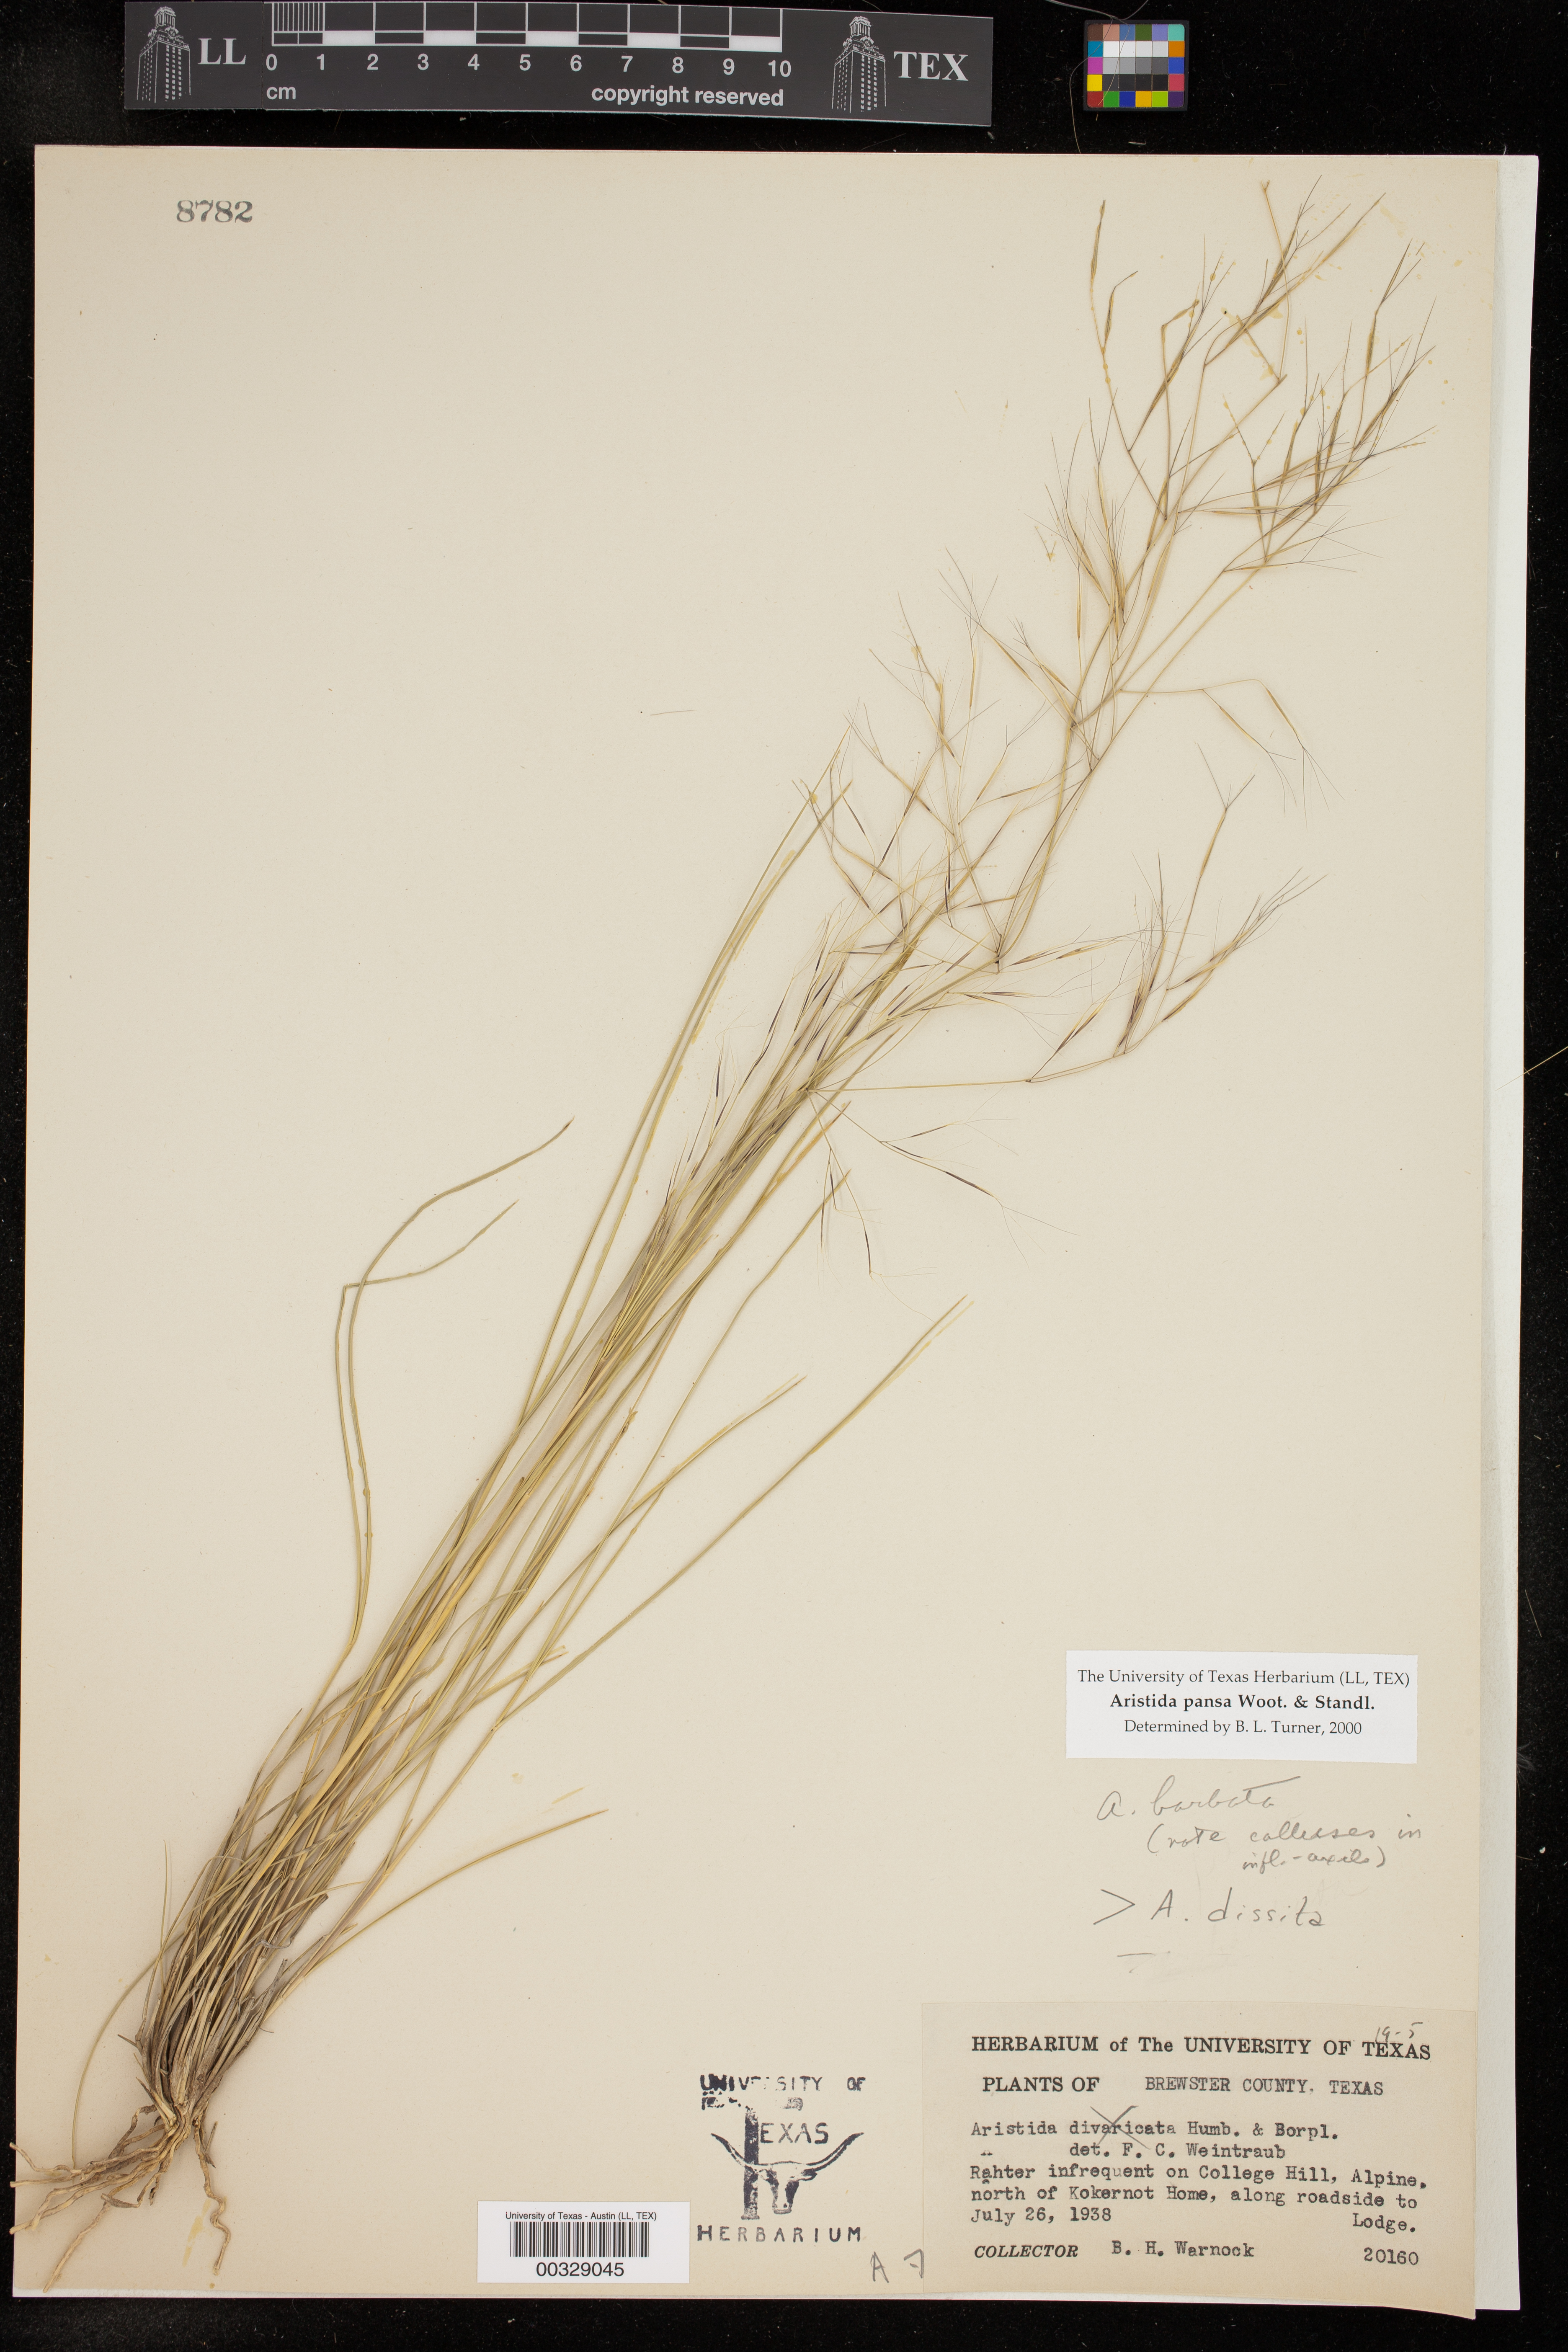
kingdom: Plantae
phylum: Tracheophyta
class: Liliopsida
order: Poales
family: Poaceae
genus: Aristida
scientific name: Aristida pansa
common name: Wooton's three-awn
